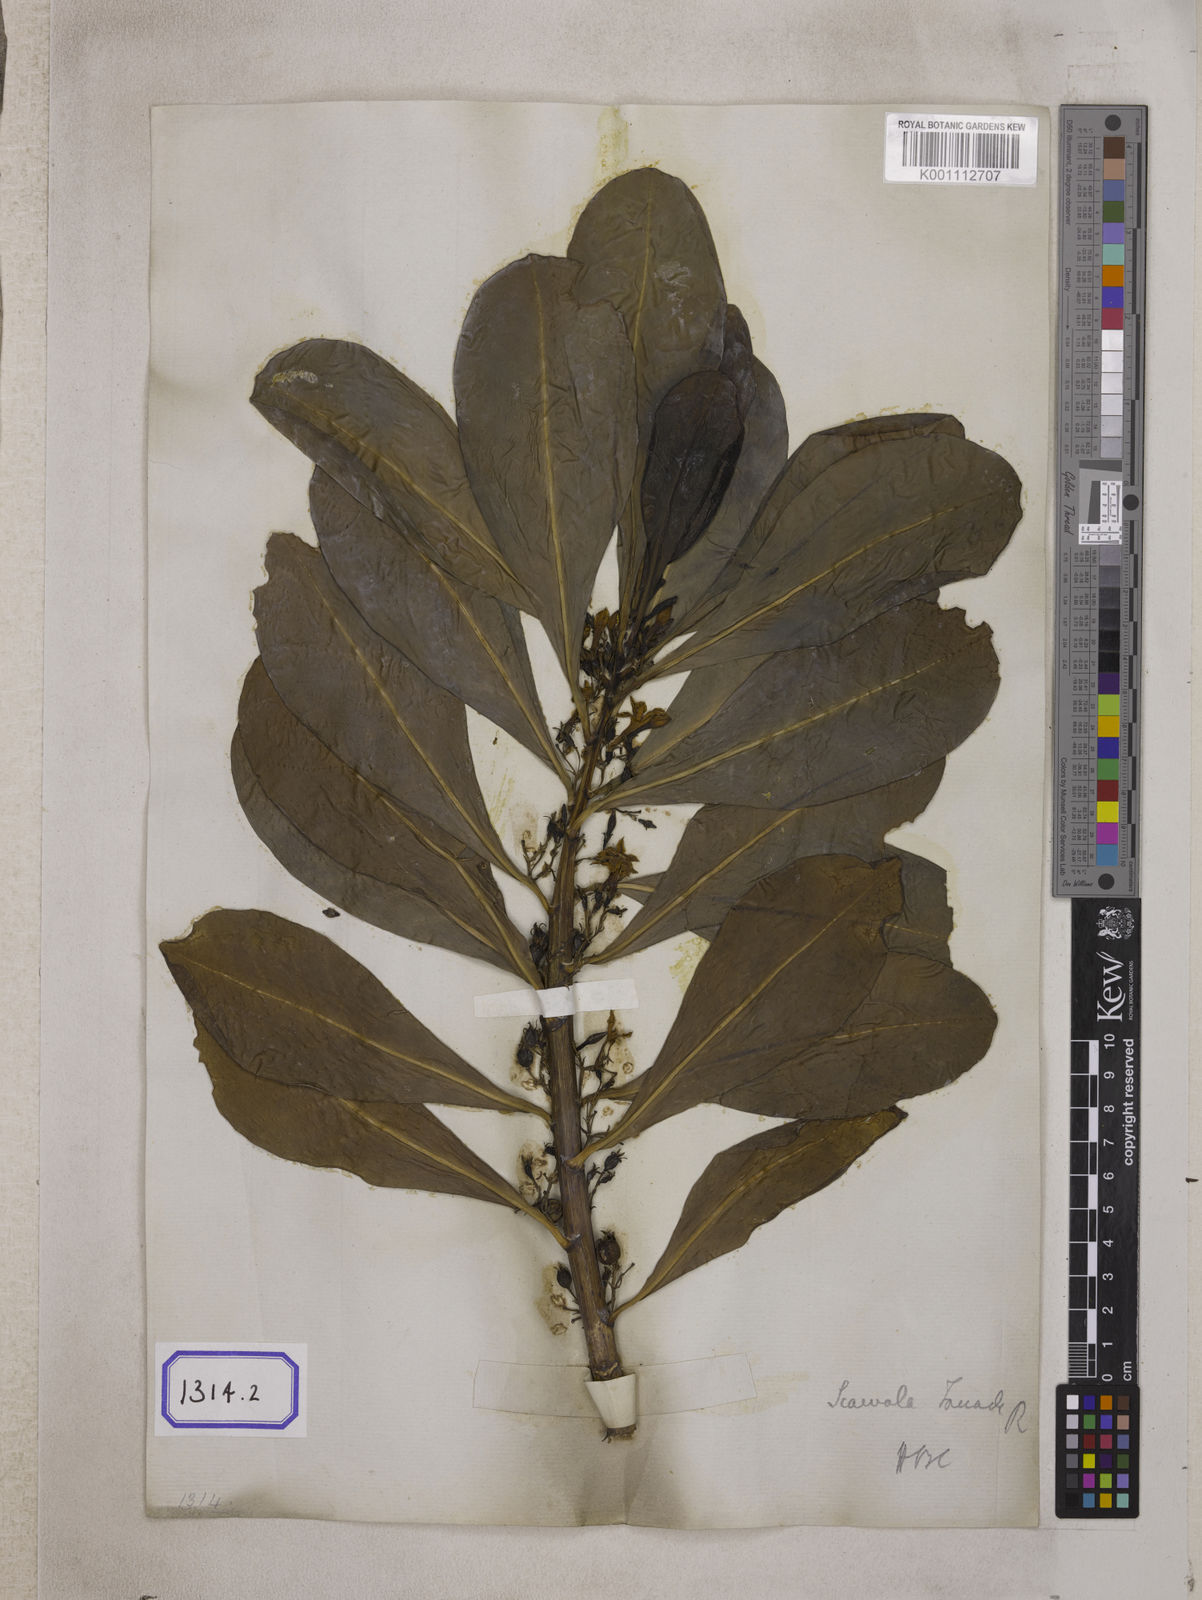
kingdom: Plantae
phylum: Tracheophyta
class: Magnoliopsida
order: Asterales
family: Goodeniaceae
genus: Scaevola
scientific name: Scaevola taccada
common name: Sea lettucetree
